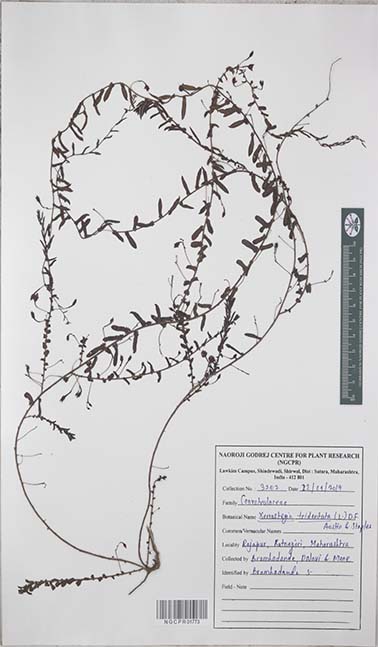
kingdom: Plantae
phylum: Tracheophyta
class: Magnoliopsida
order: Solanales
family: Convolvulaceae
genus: Xenostegia
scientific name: Xenostegia tridentata
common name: African morningvine
